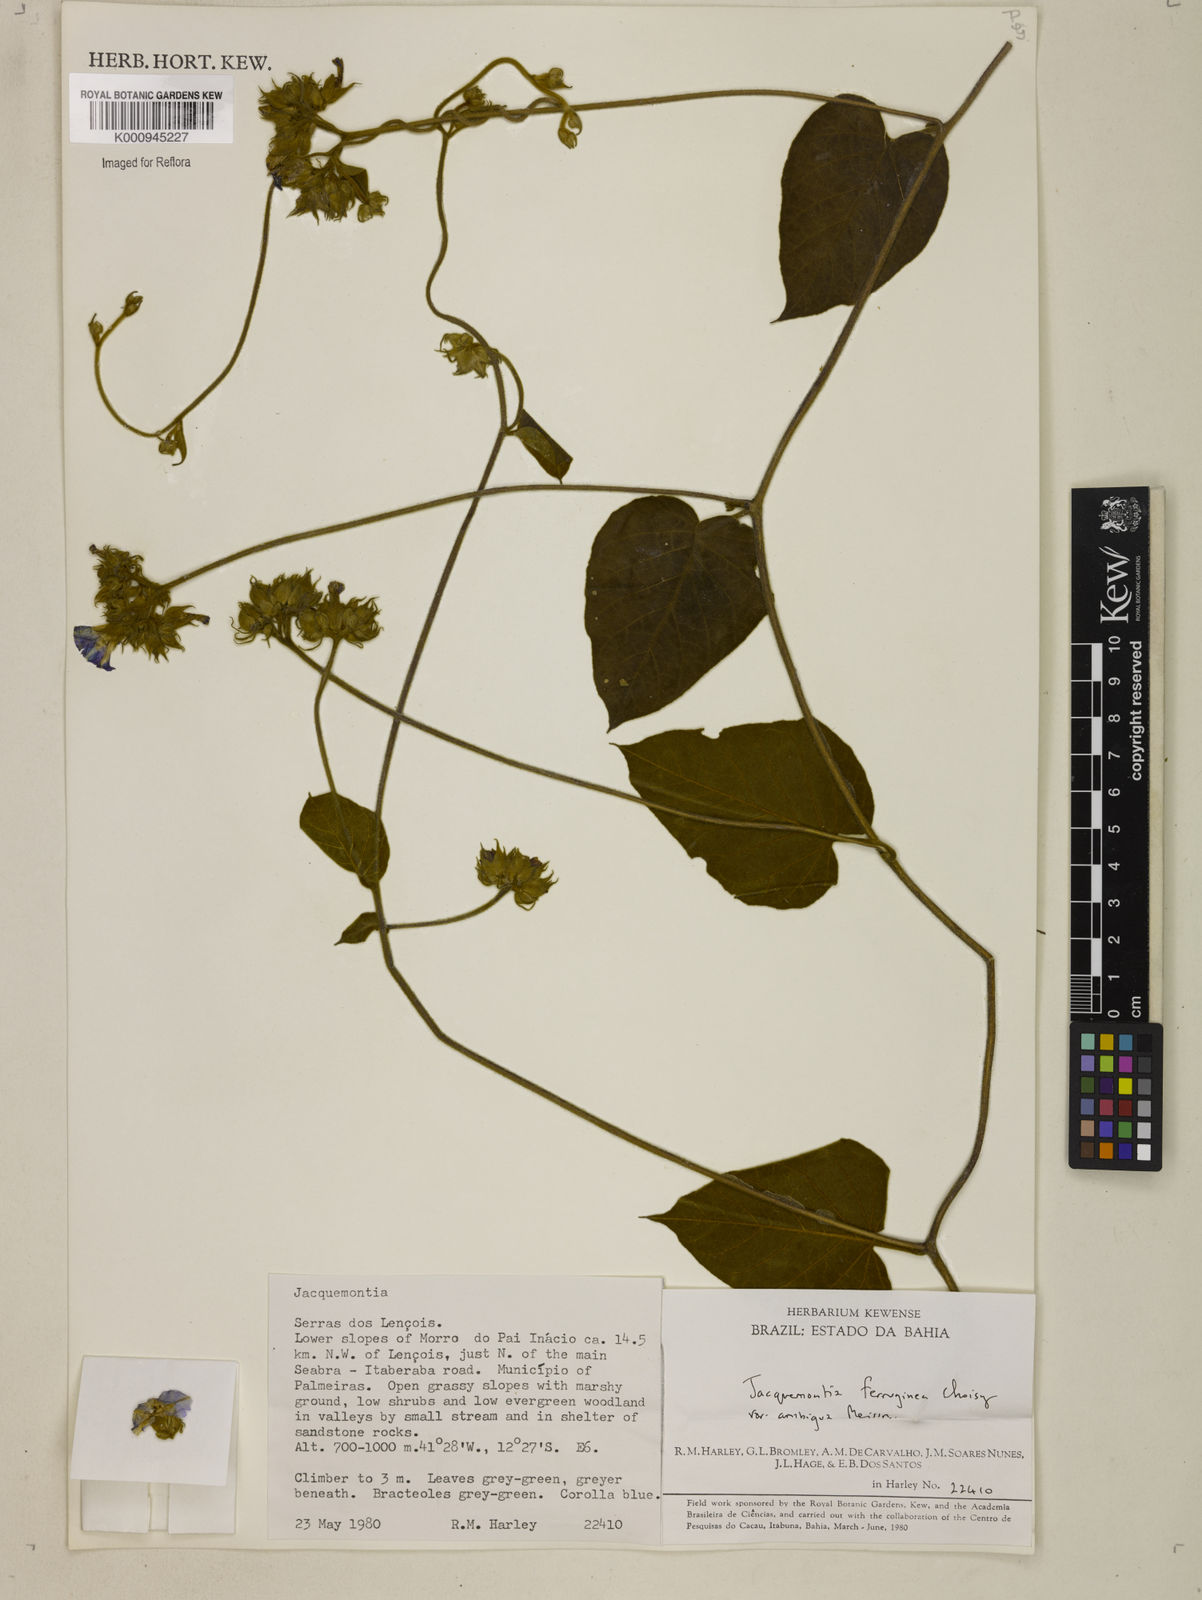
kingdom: Plantae
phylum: Tracheophyta
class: Magnoliopsida
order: Solanales
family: Convolvulaceae
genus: Jacquemontia
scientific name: Jacquemontia cumanensis
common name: Thicket clustervine
